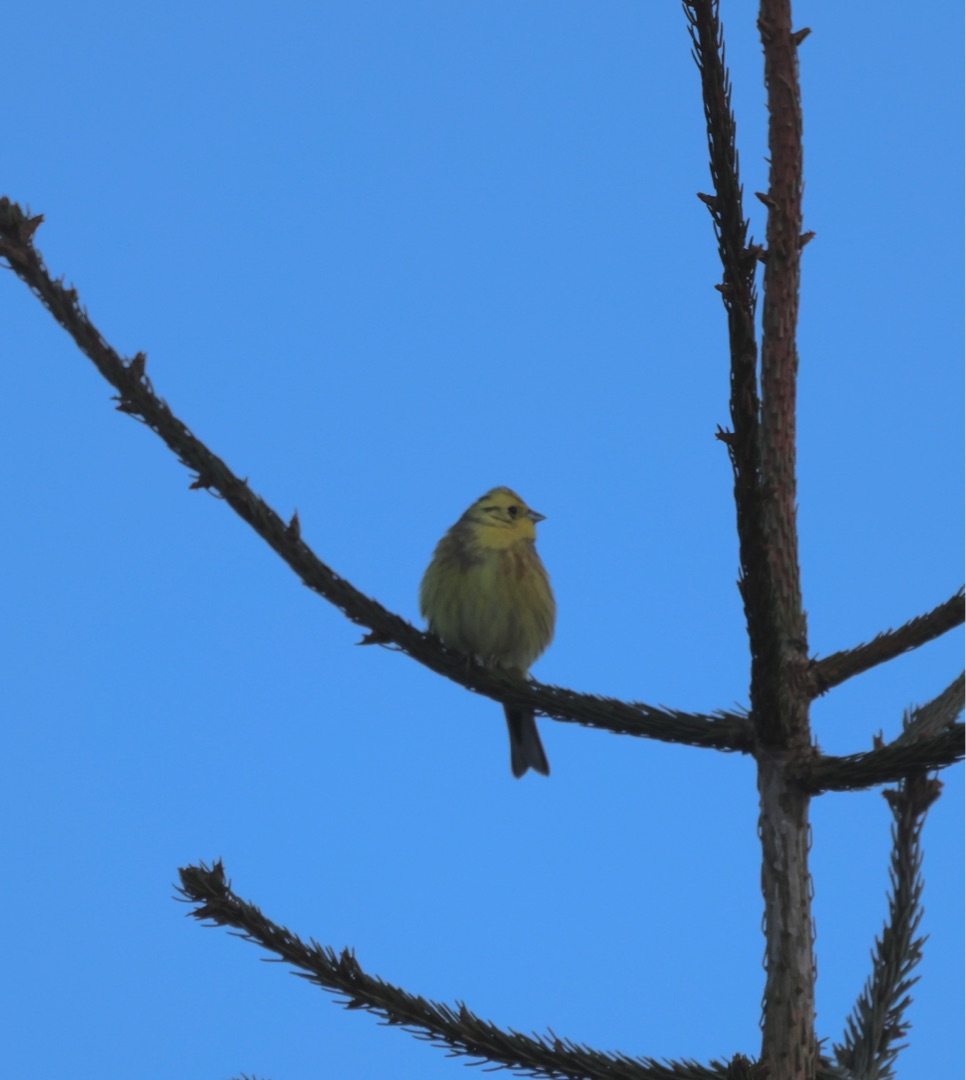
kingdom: Animalia
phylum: Chordata
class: Aves
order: Passeriformes
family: Emberizidae
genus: Emberiza
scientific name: Emberiza citrinella
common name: Gulspurv
